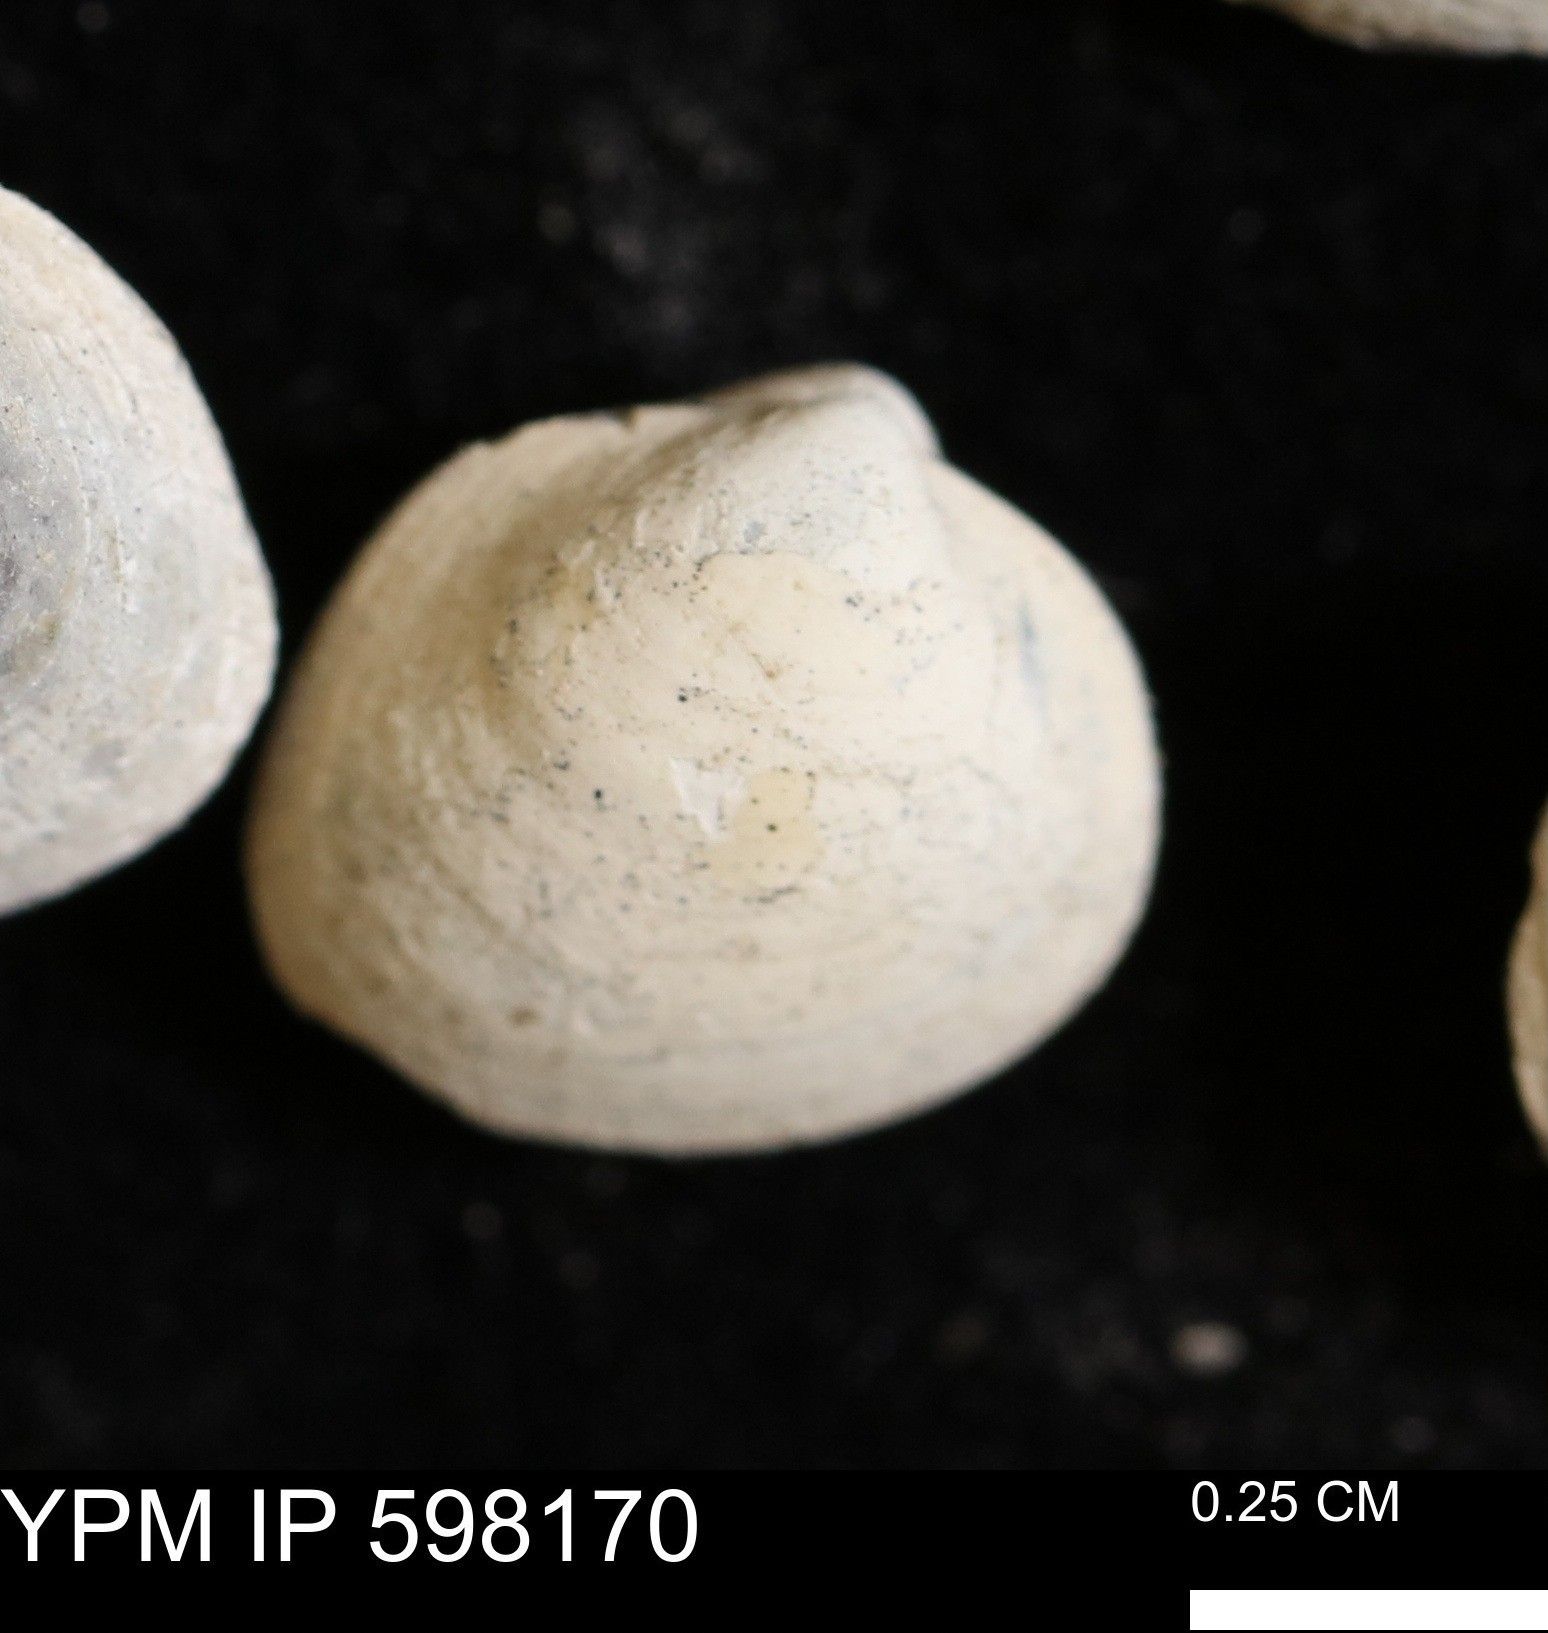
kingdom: Animalia
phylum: Mollusca
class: Bivalvia
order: Arcida
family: Limopsidae
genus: Limopsis
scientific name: Limopsis
